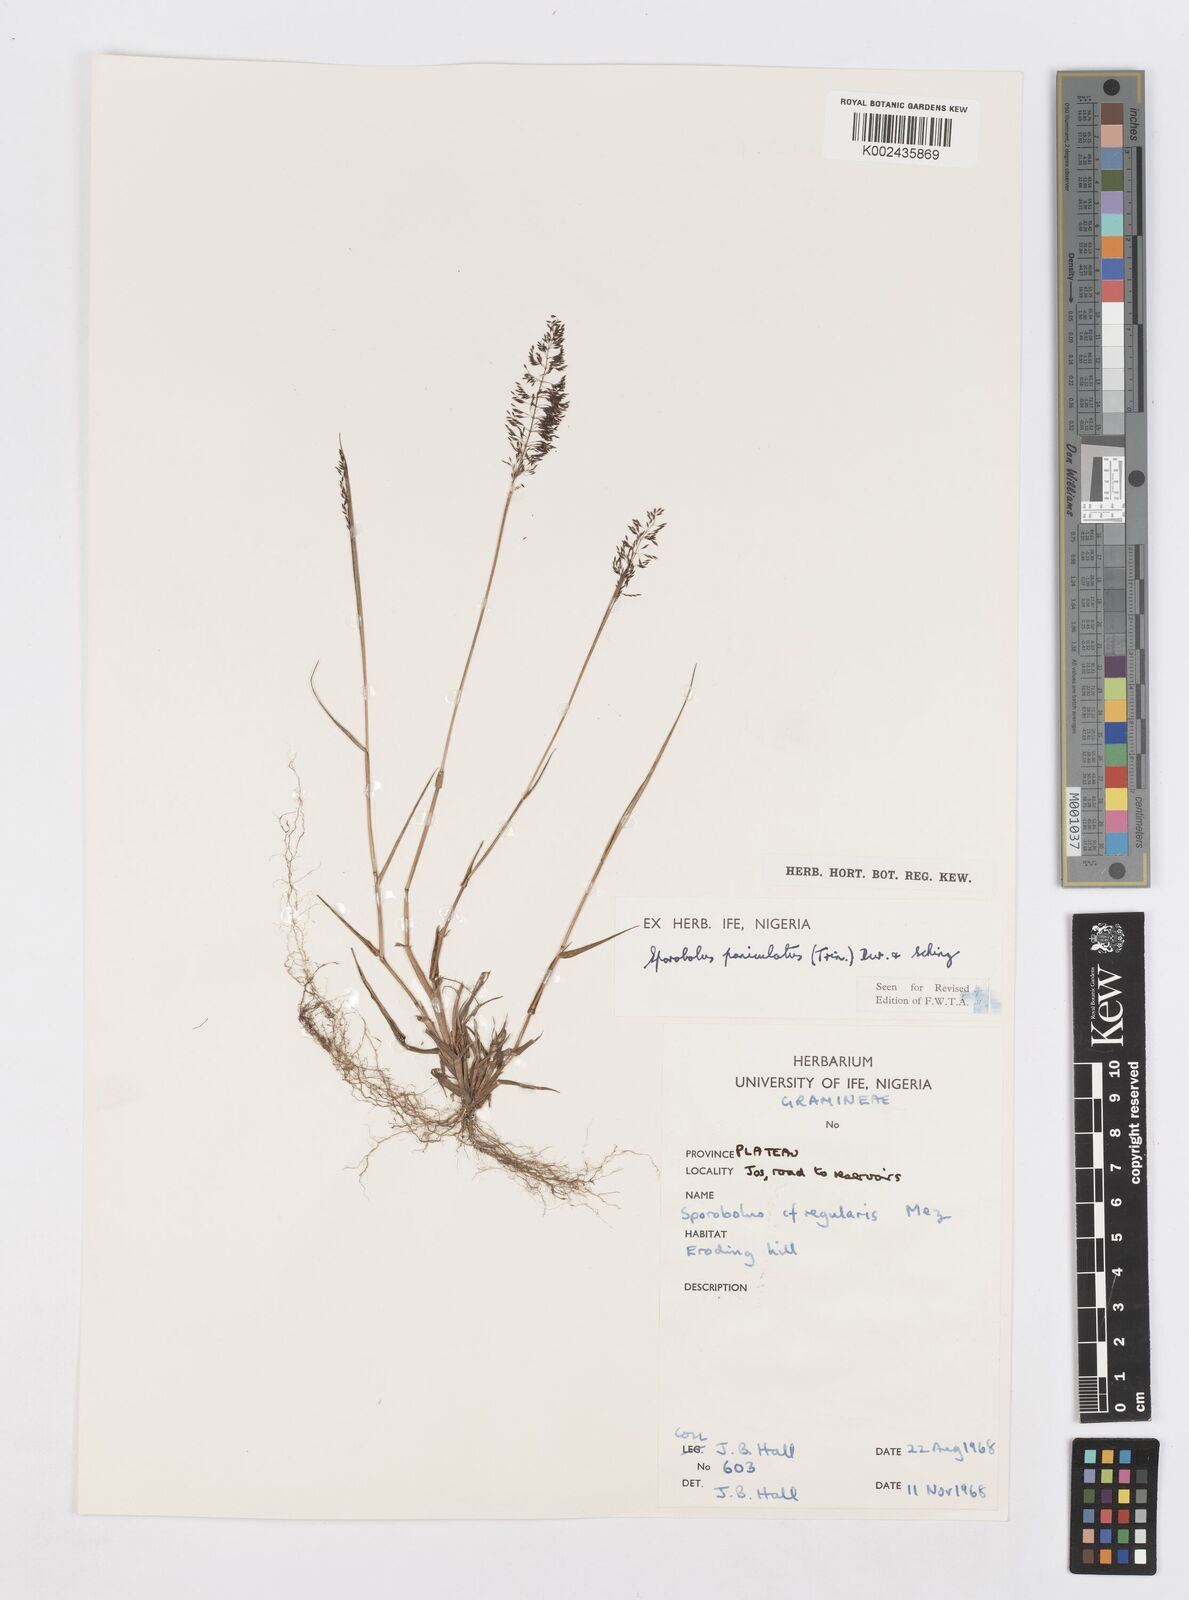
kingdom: Plantae
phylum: Tracheophyta
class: Liliopsida
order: Poales
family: Poaceae
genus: Sporobolus
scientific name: Sporobolus micranthus
